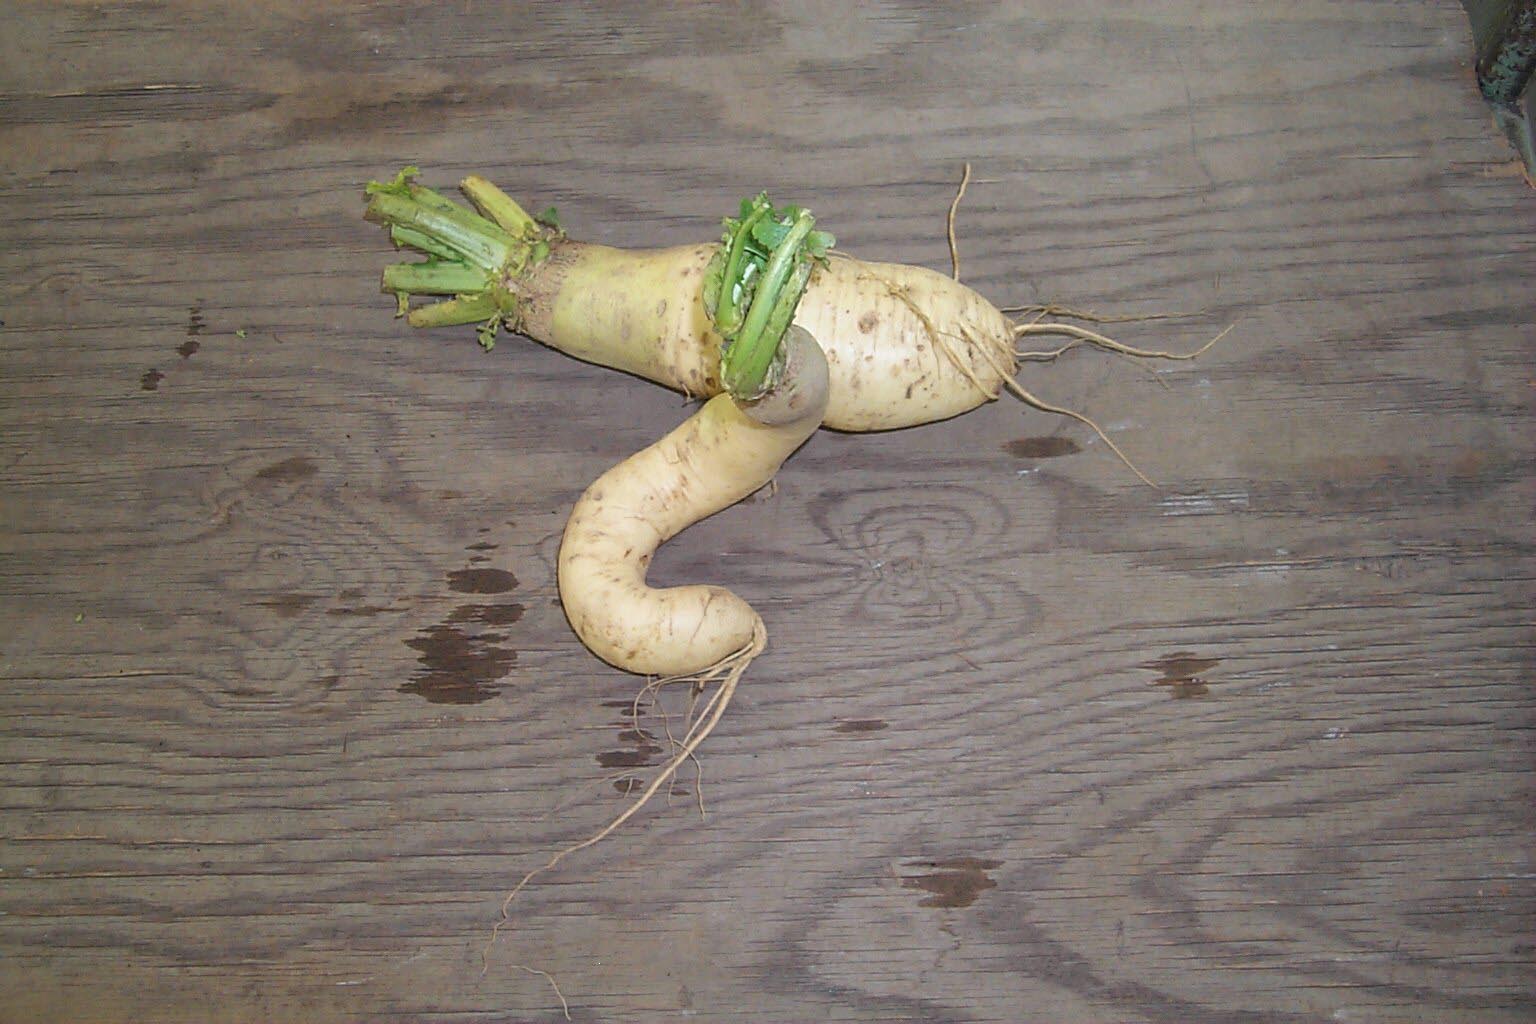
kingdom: Plantae
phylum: Tracheophyta
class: Magnoliopsida
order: Brassicales
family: Brassicaceae
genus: Brassica
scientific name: Brassica rapa
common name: Field mustard
